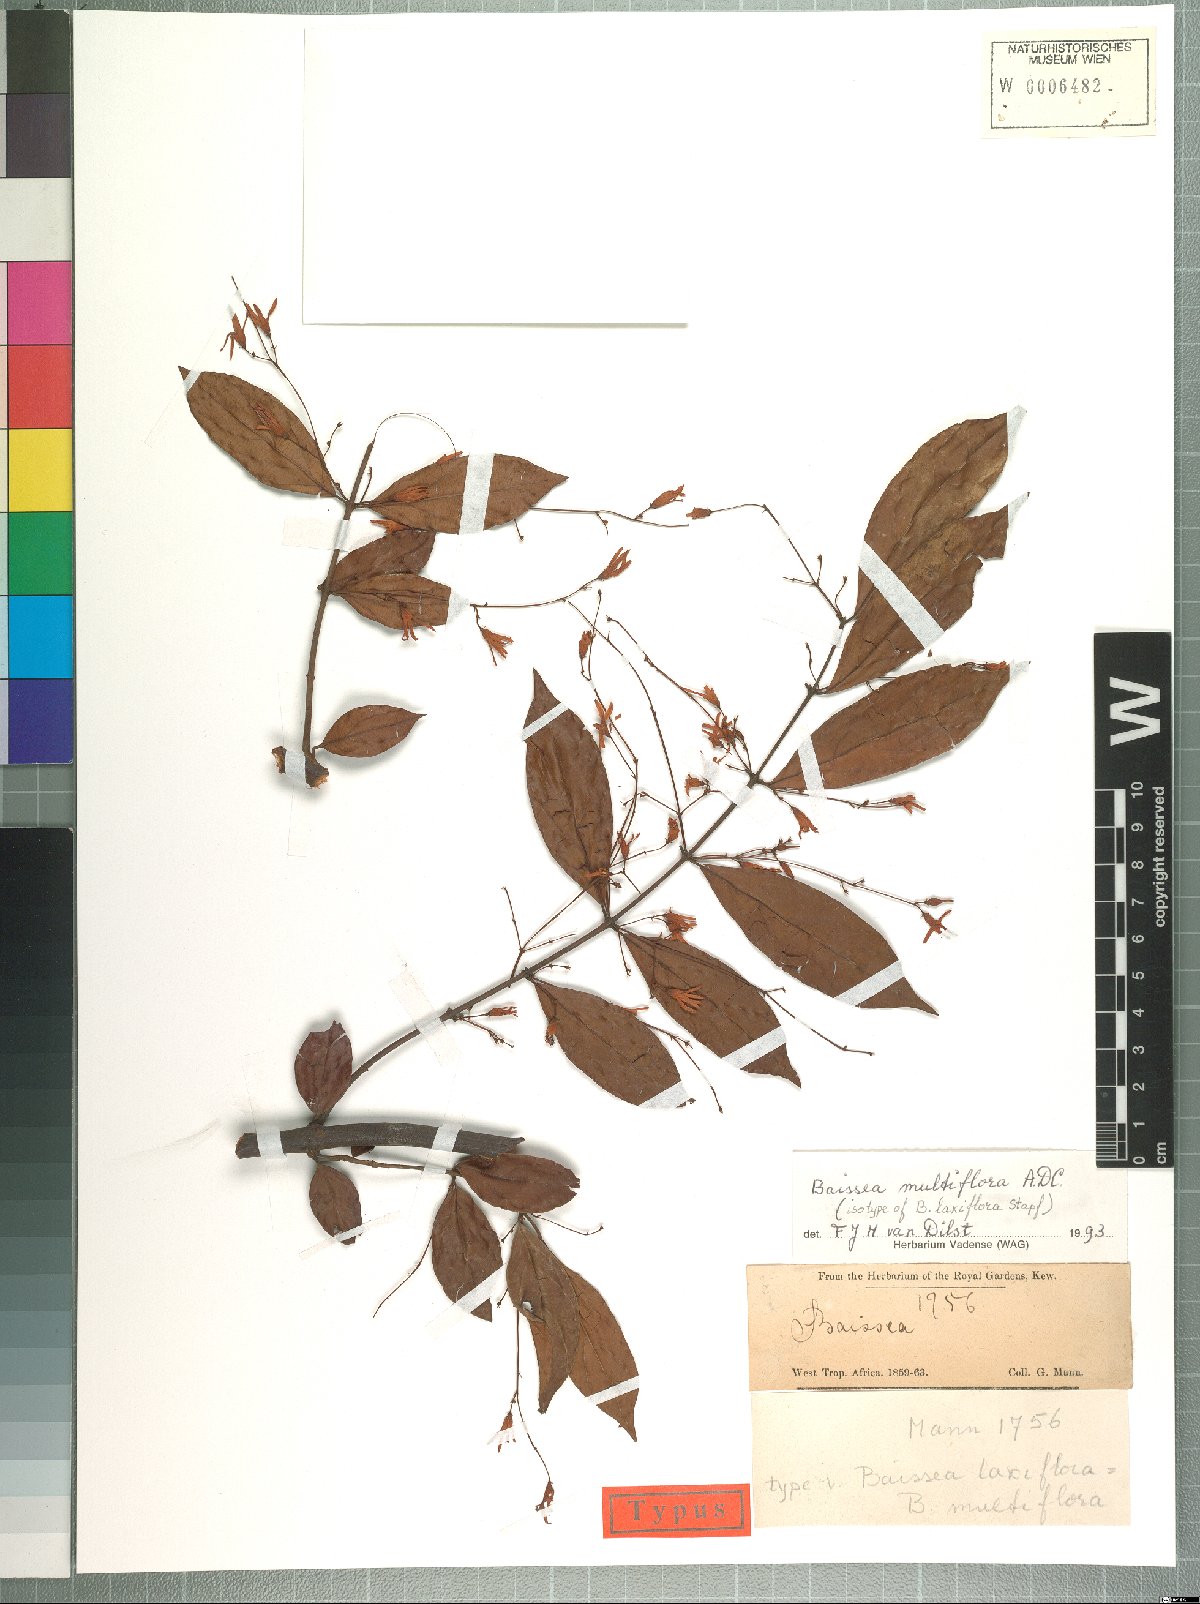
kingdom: Plantae
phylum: Tracheophyta
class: Magnoliopsida
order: Gentianales
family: Apocynaceae
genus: Baissea
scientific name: Baissea multiflora
